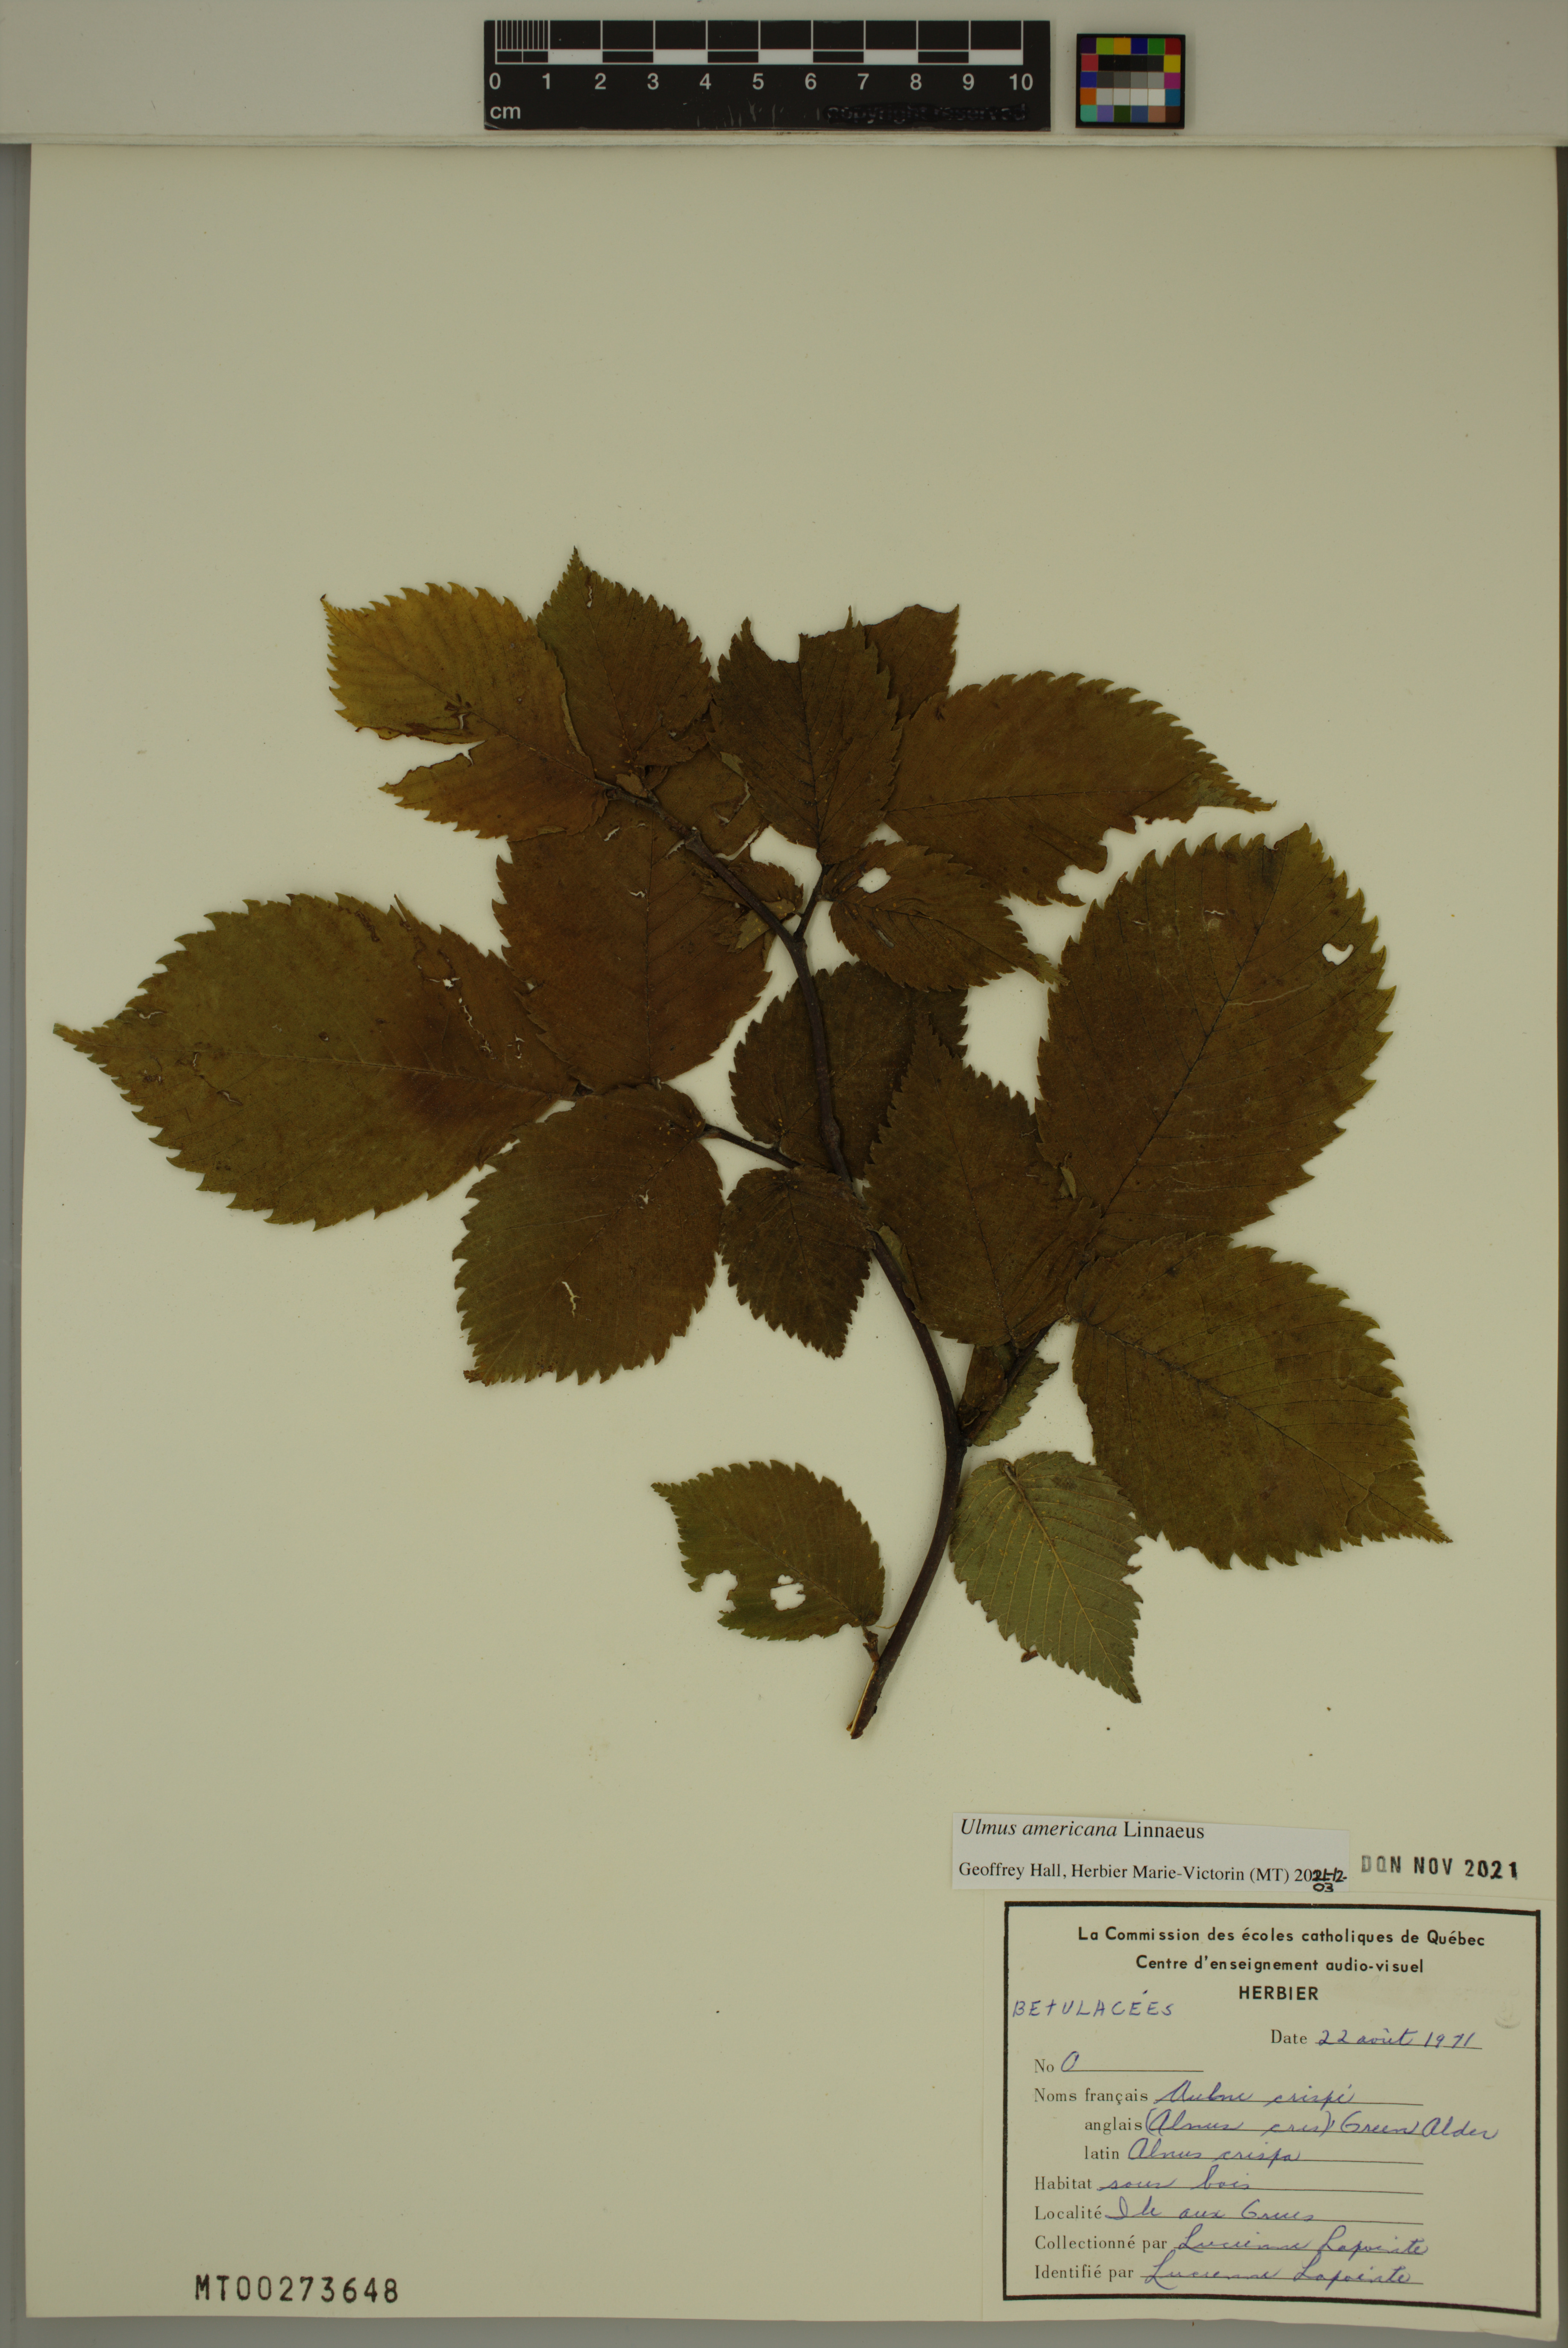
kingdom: Plantae
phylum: Tracheophyta
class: Magnoliopsida
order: Rosales
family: Ulmaceae
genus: Ulmus
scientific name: Ulmus americana
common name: American elm
